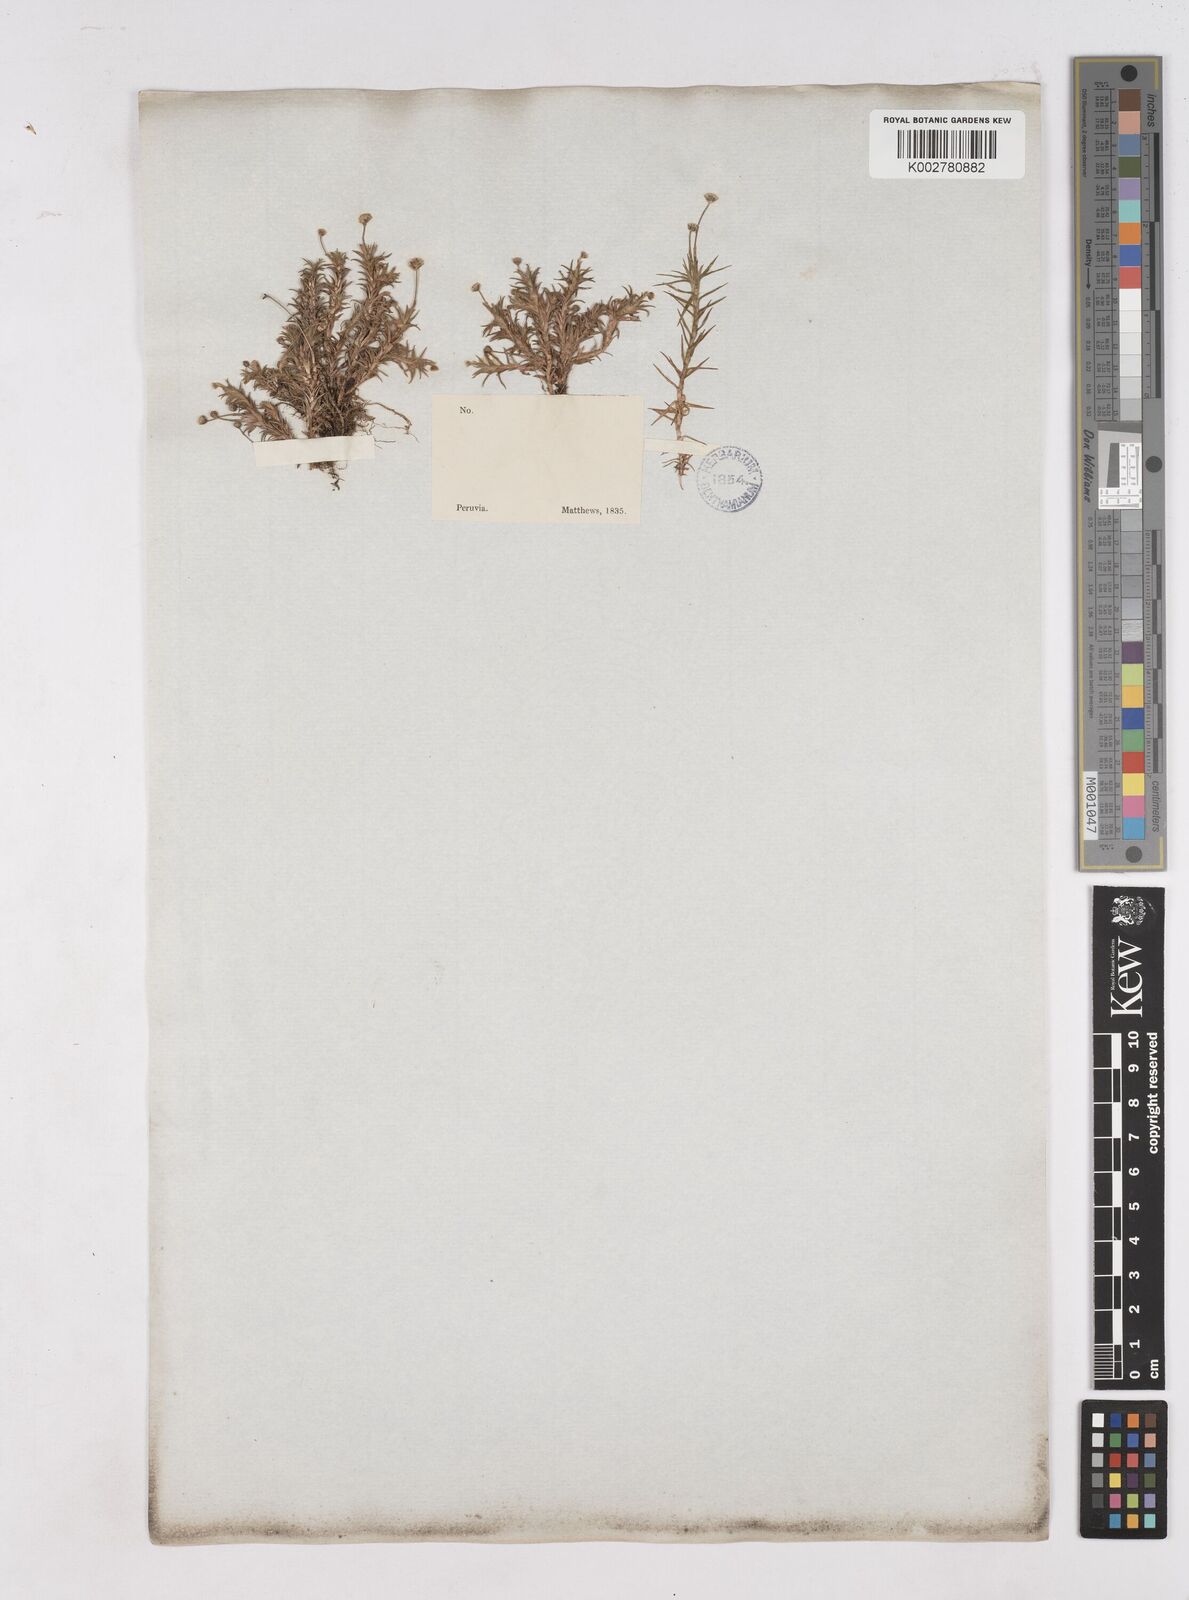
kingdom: Plantae
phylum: Tracheophyta
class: Liliopsida
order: Poales
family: Eriocaulaceae
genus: Paepalanthus
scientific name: Paepalanthus
